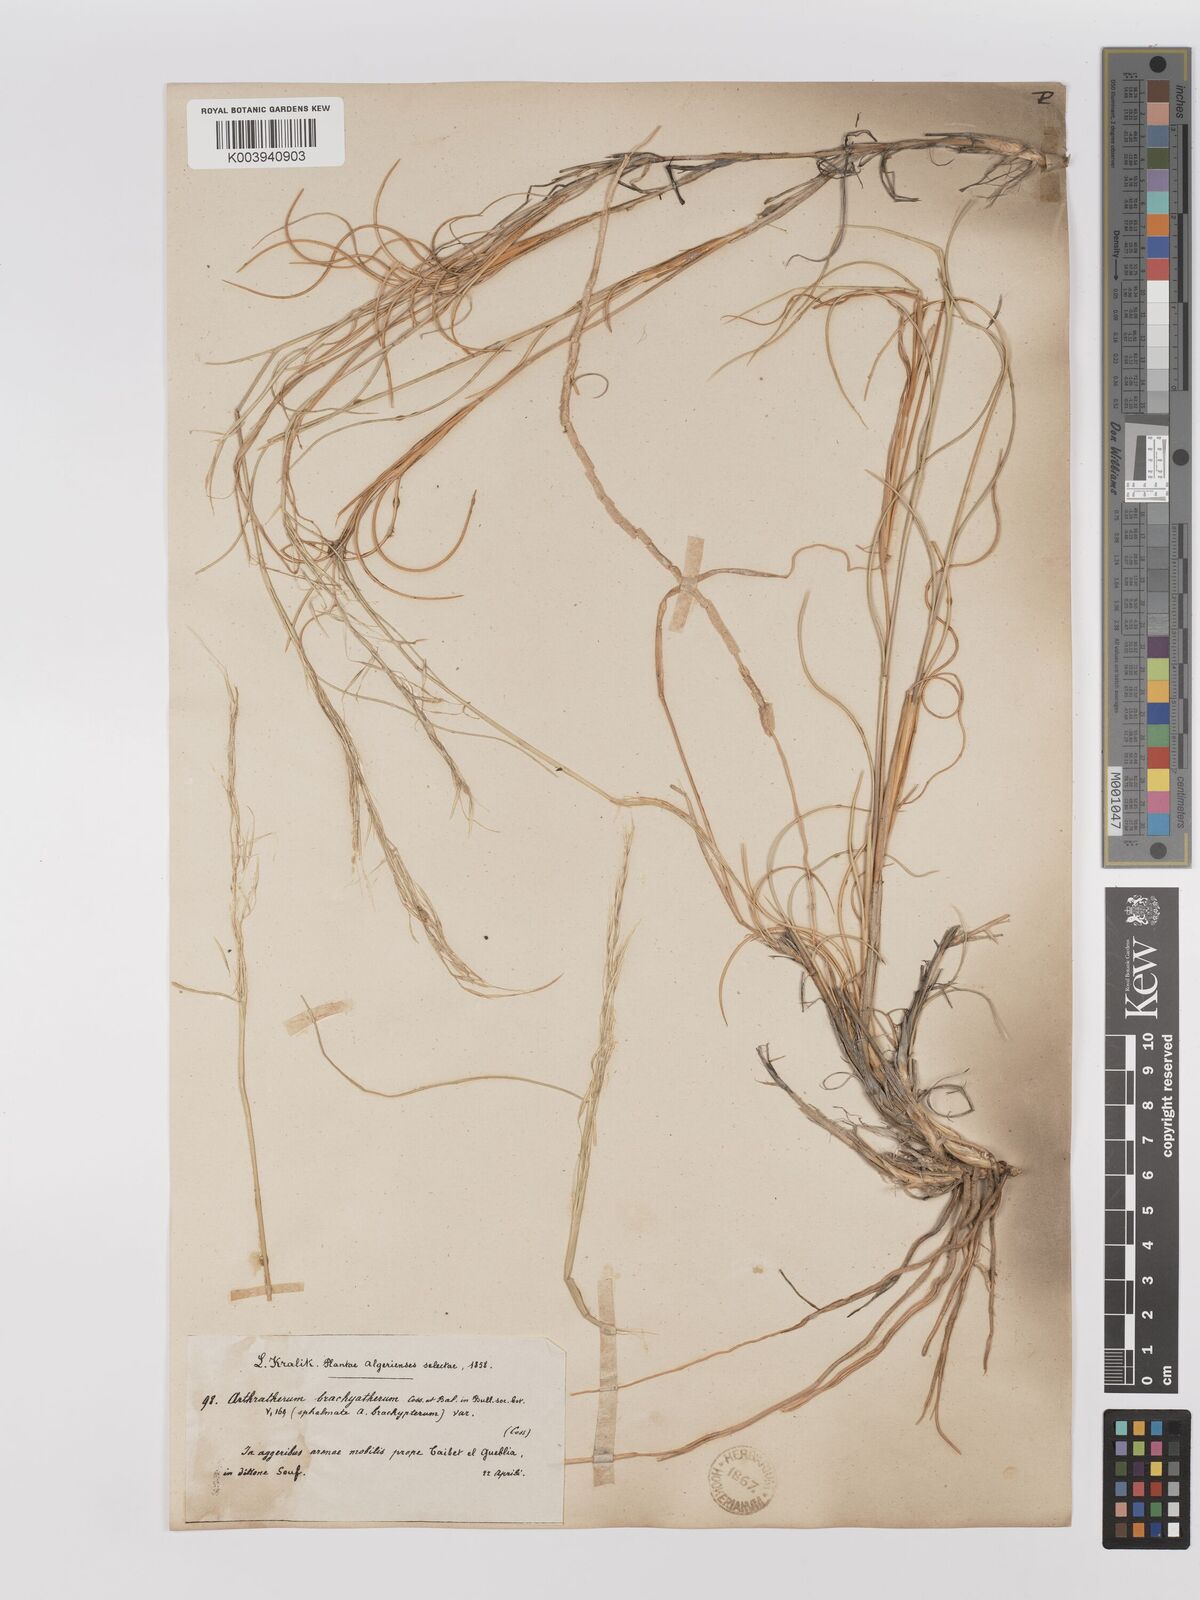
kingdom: Plantae
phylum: Tracheophyta
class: Liliopsida
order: Poales
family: Poaceae
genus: Stipagrostis
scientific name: Stipagrostis acutiflora
